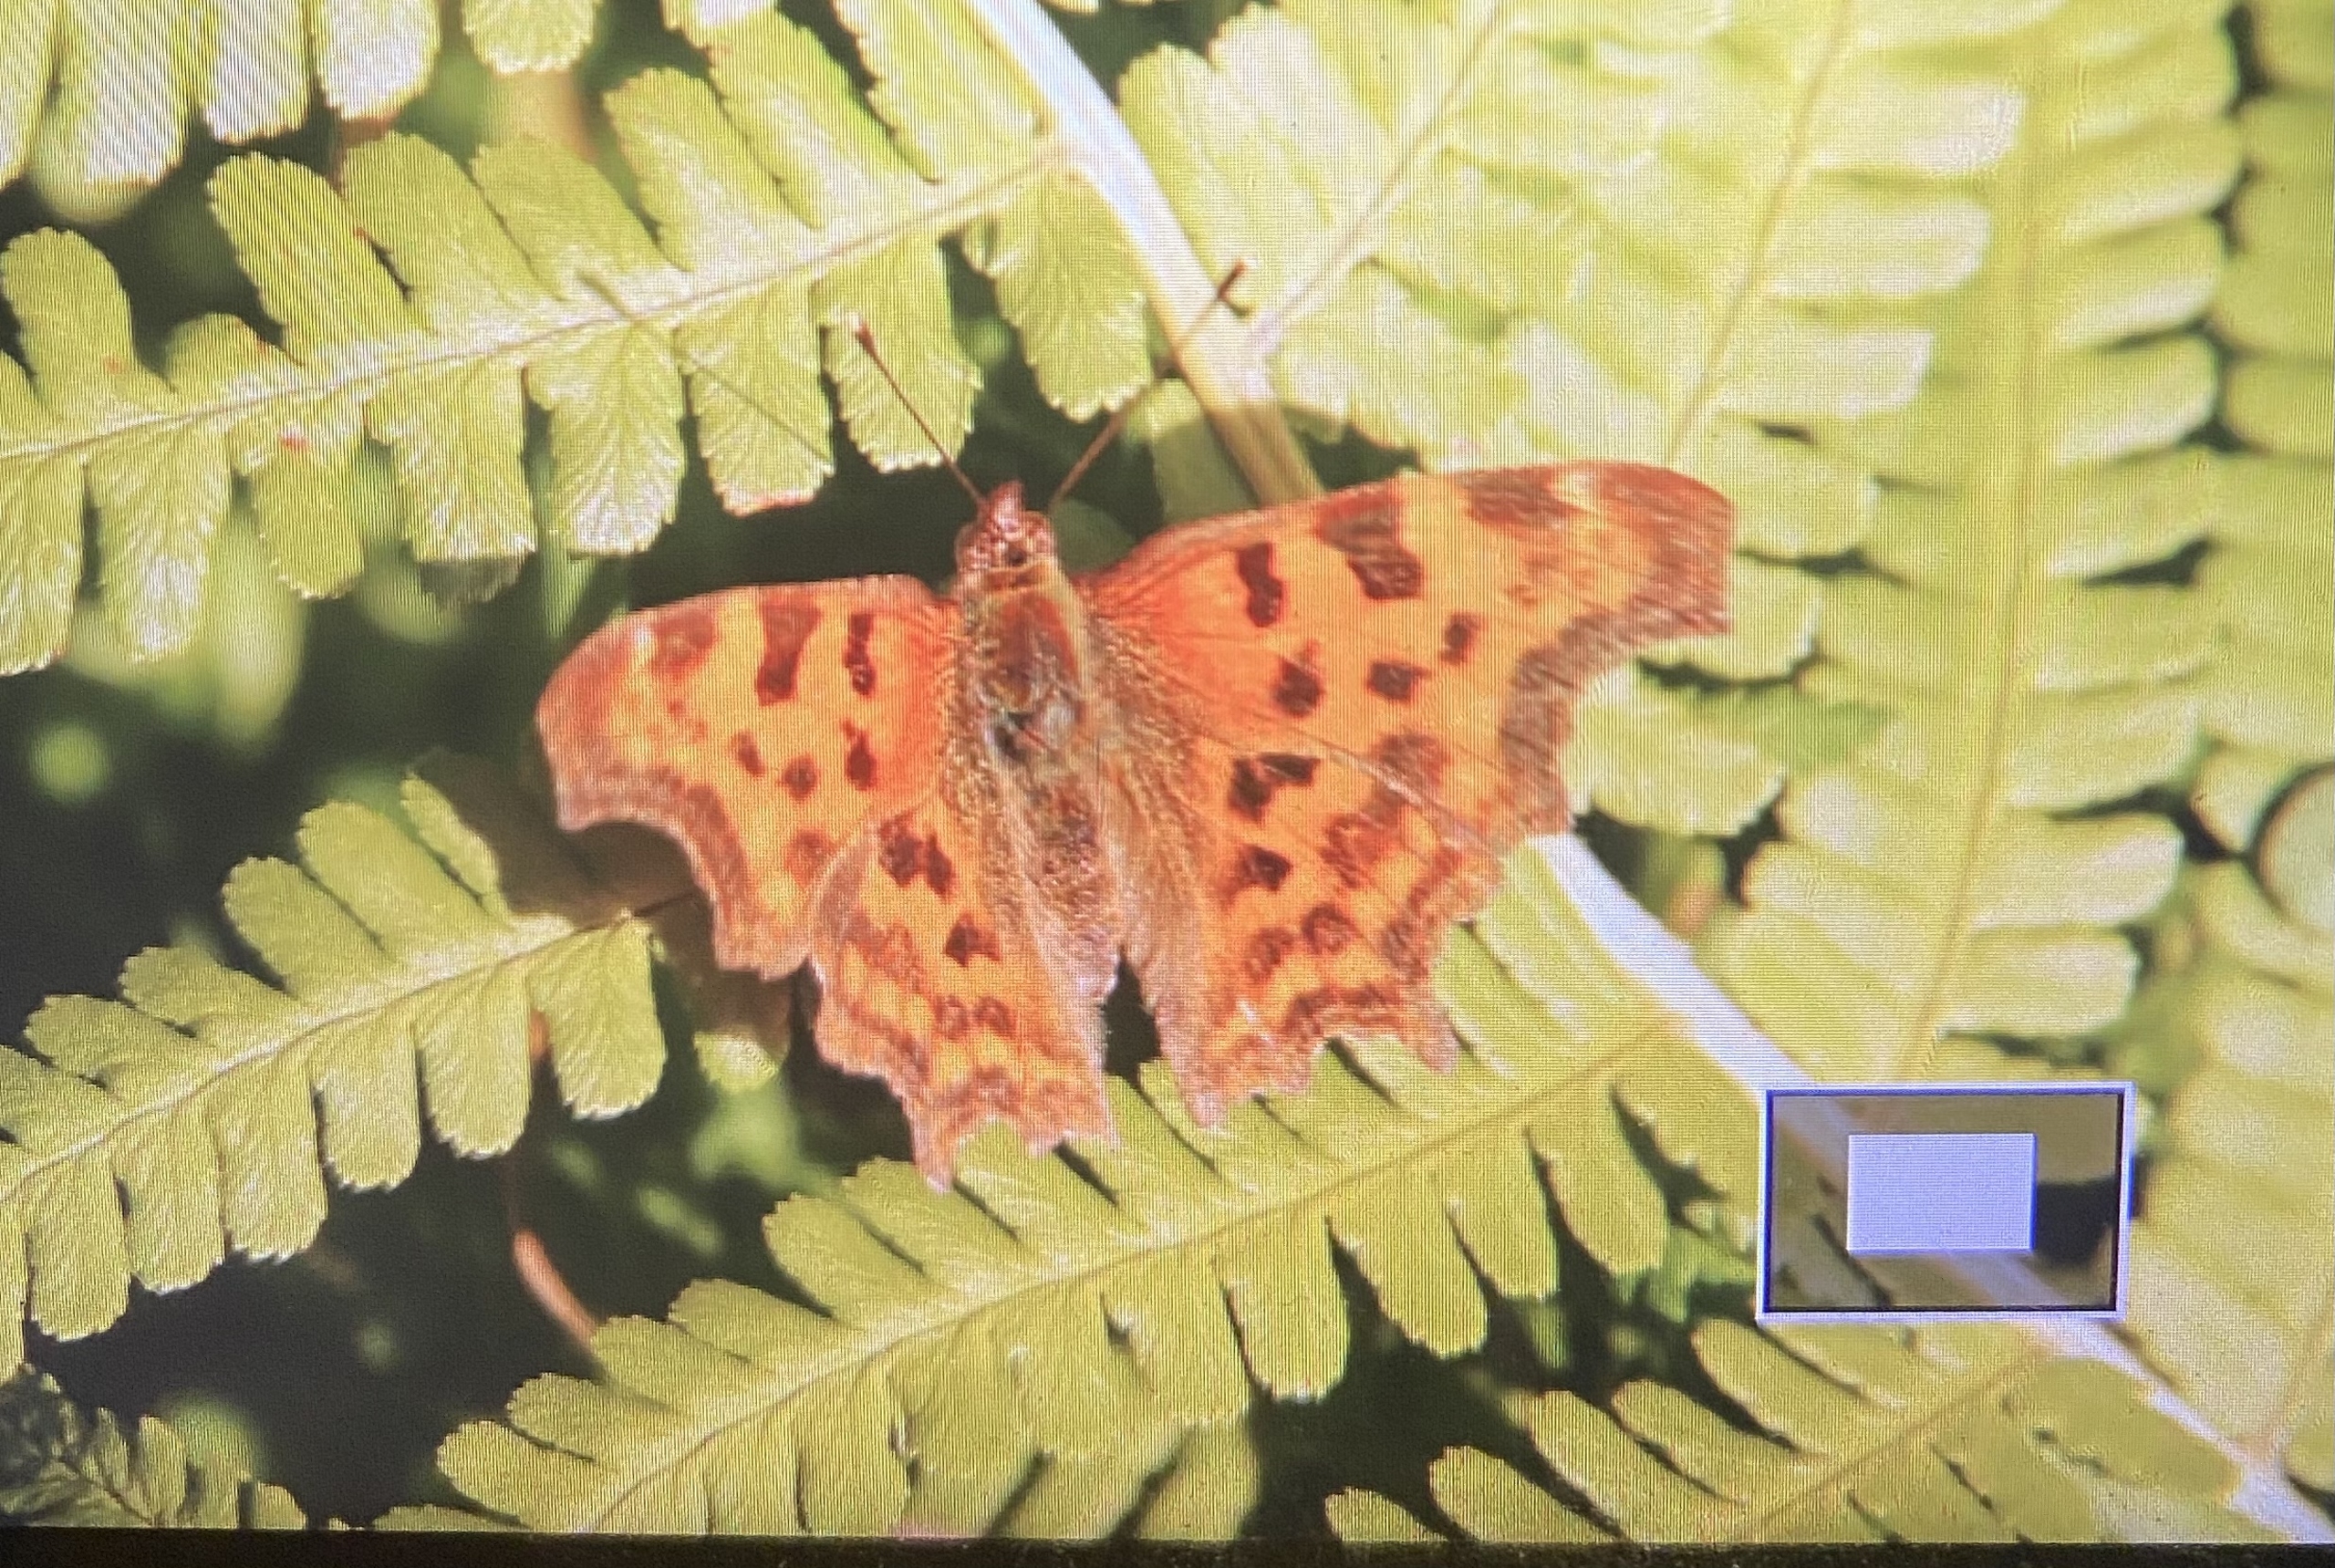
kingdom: Animalia
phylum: Arthropoda
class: Insecta
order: Lepidoptera
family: Nymphalidae
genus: Polygonia
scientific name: Polygonia c-album
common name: Det hvide C
